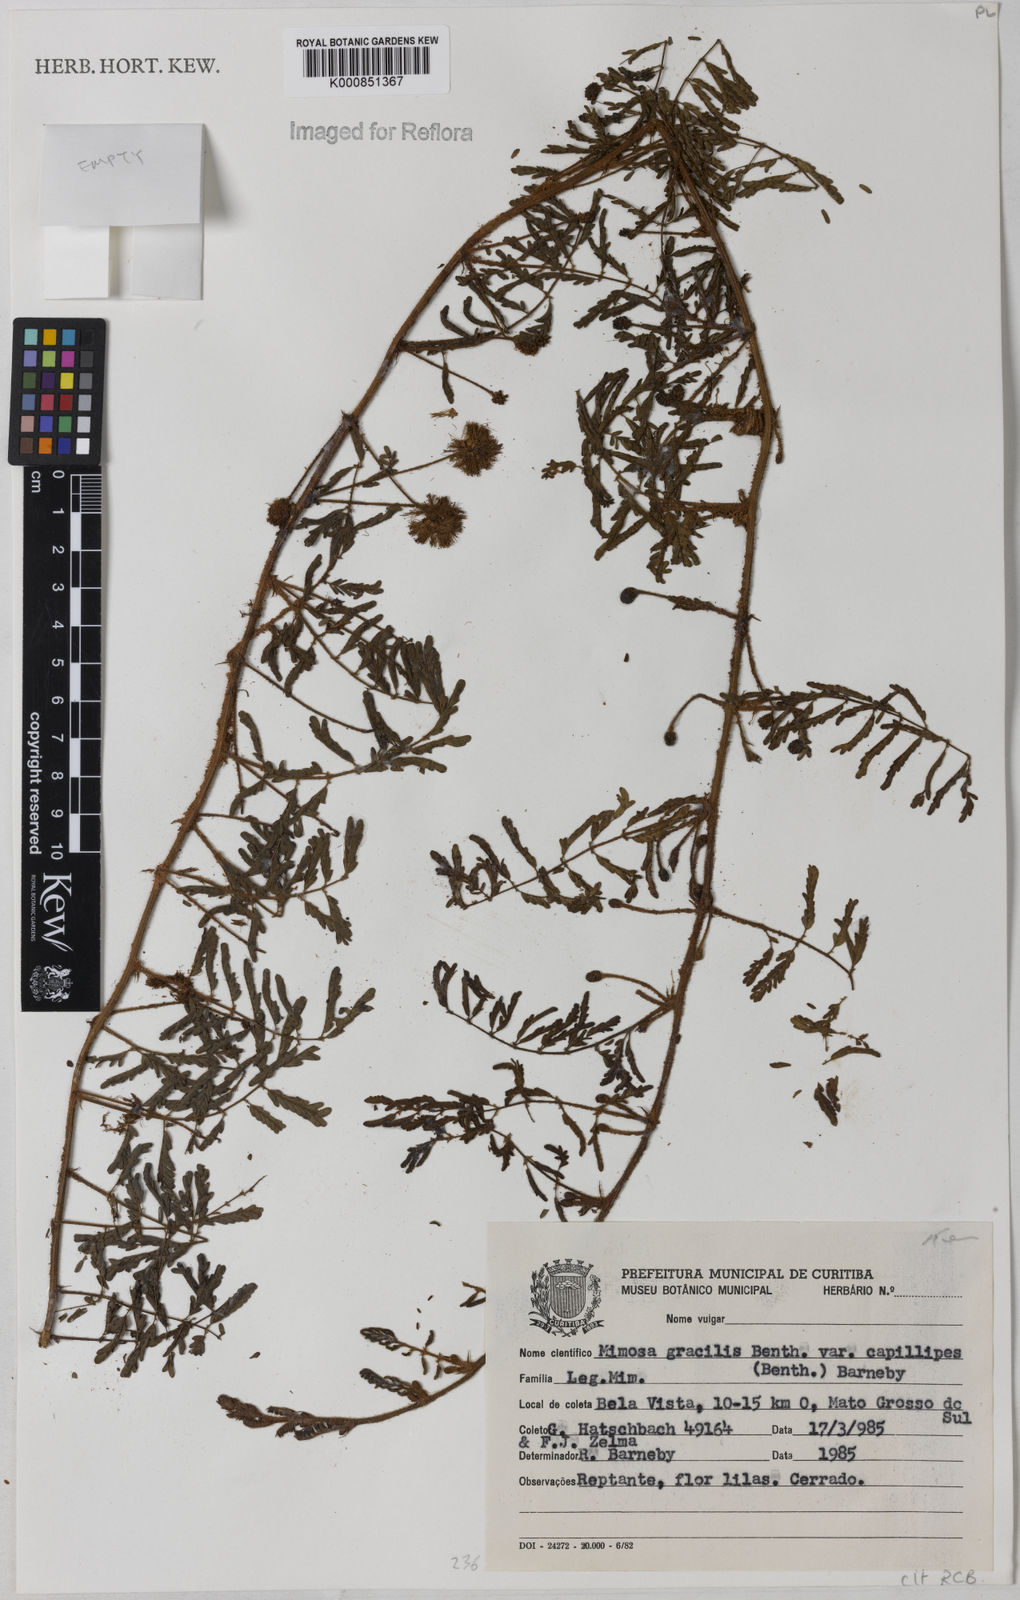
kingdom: Plantae
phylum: Tracheophyta
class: Magnoliopsida
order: Fabales
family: Fabaceae
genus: Mimosa
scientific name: Mimosa gracilis
